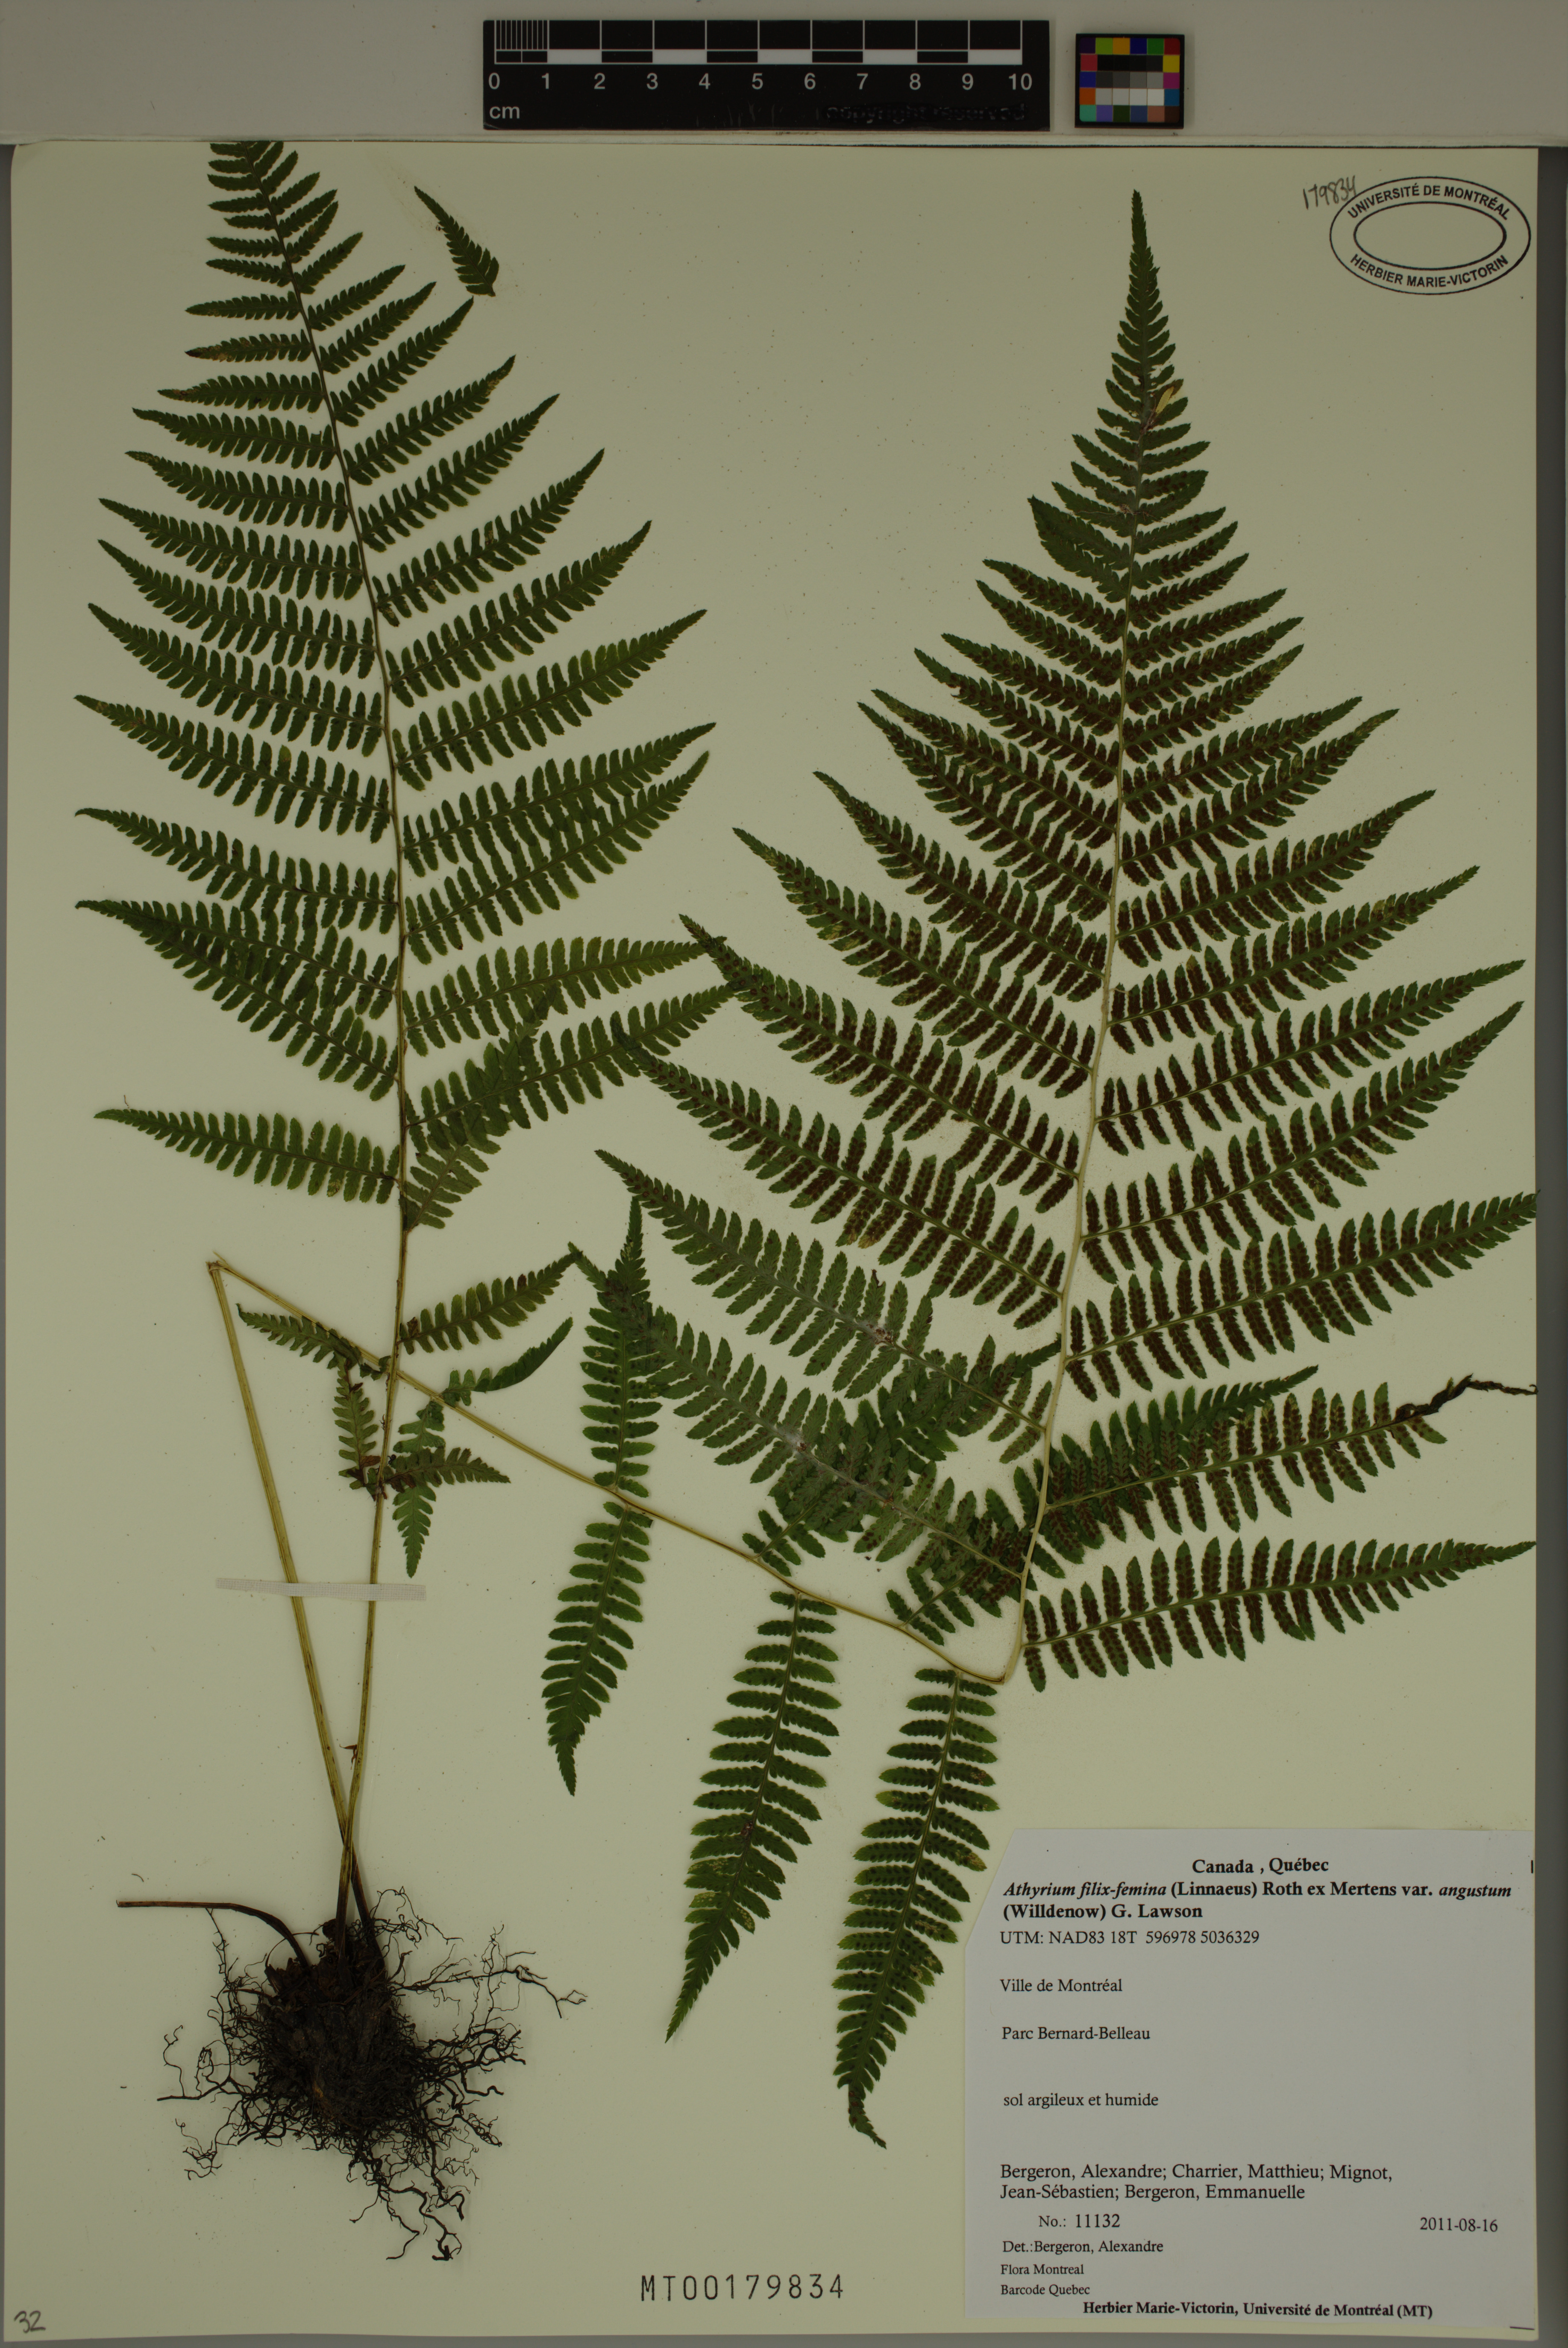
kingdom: Plantae
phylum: Tracheophyta
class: Polypodiopsida
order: Polypodiales
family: Athyriaceae
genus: Athyrium
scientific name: Athyrium angustum
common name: Northern lady fern
